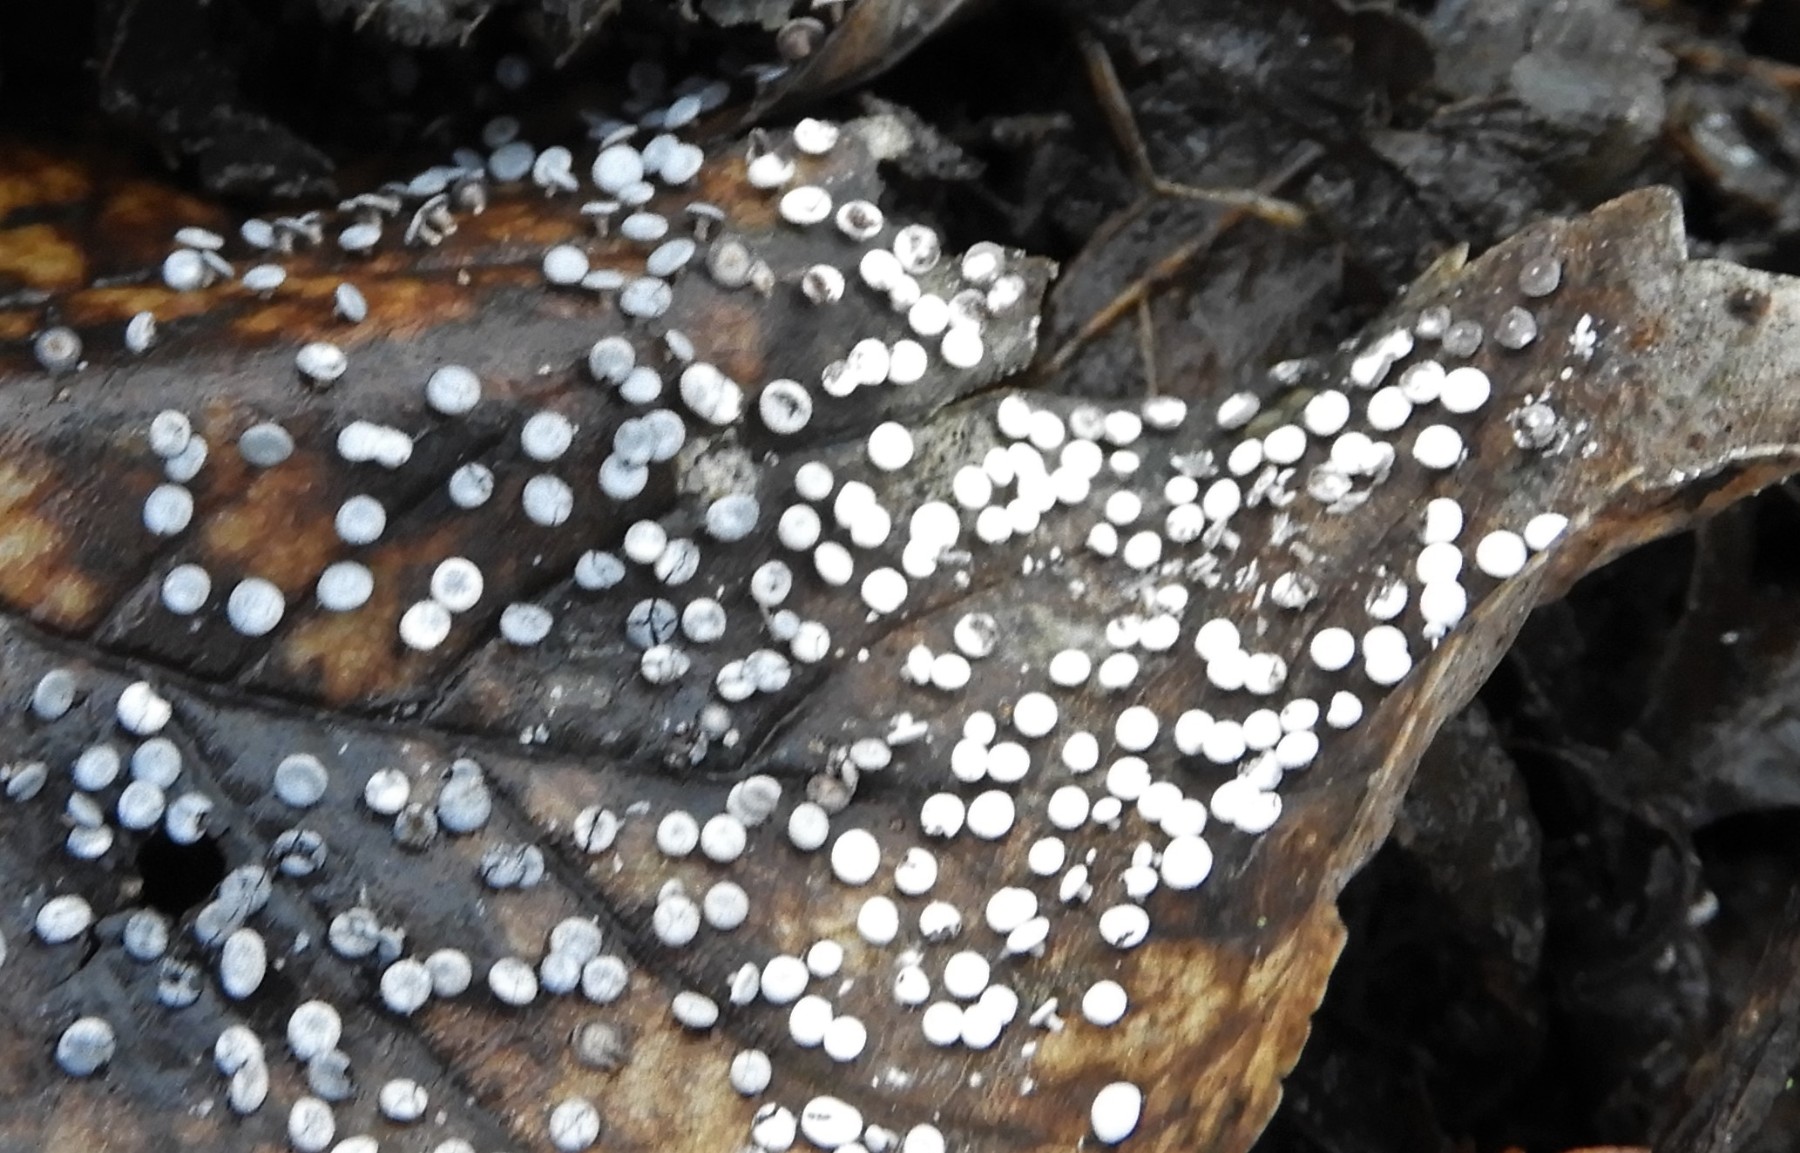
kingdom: Protozoa
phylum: Mycetozoa
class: Myxomycetes
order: Physarales
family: Didymiaceae
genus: Diderma
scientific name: Diderma hemisphaericum
